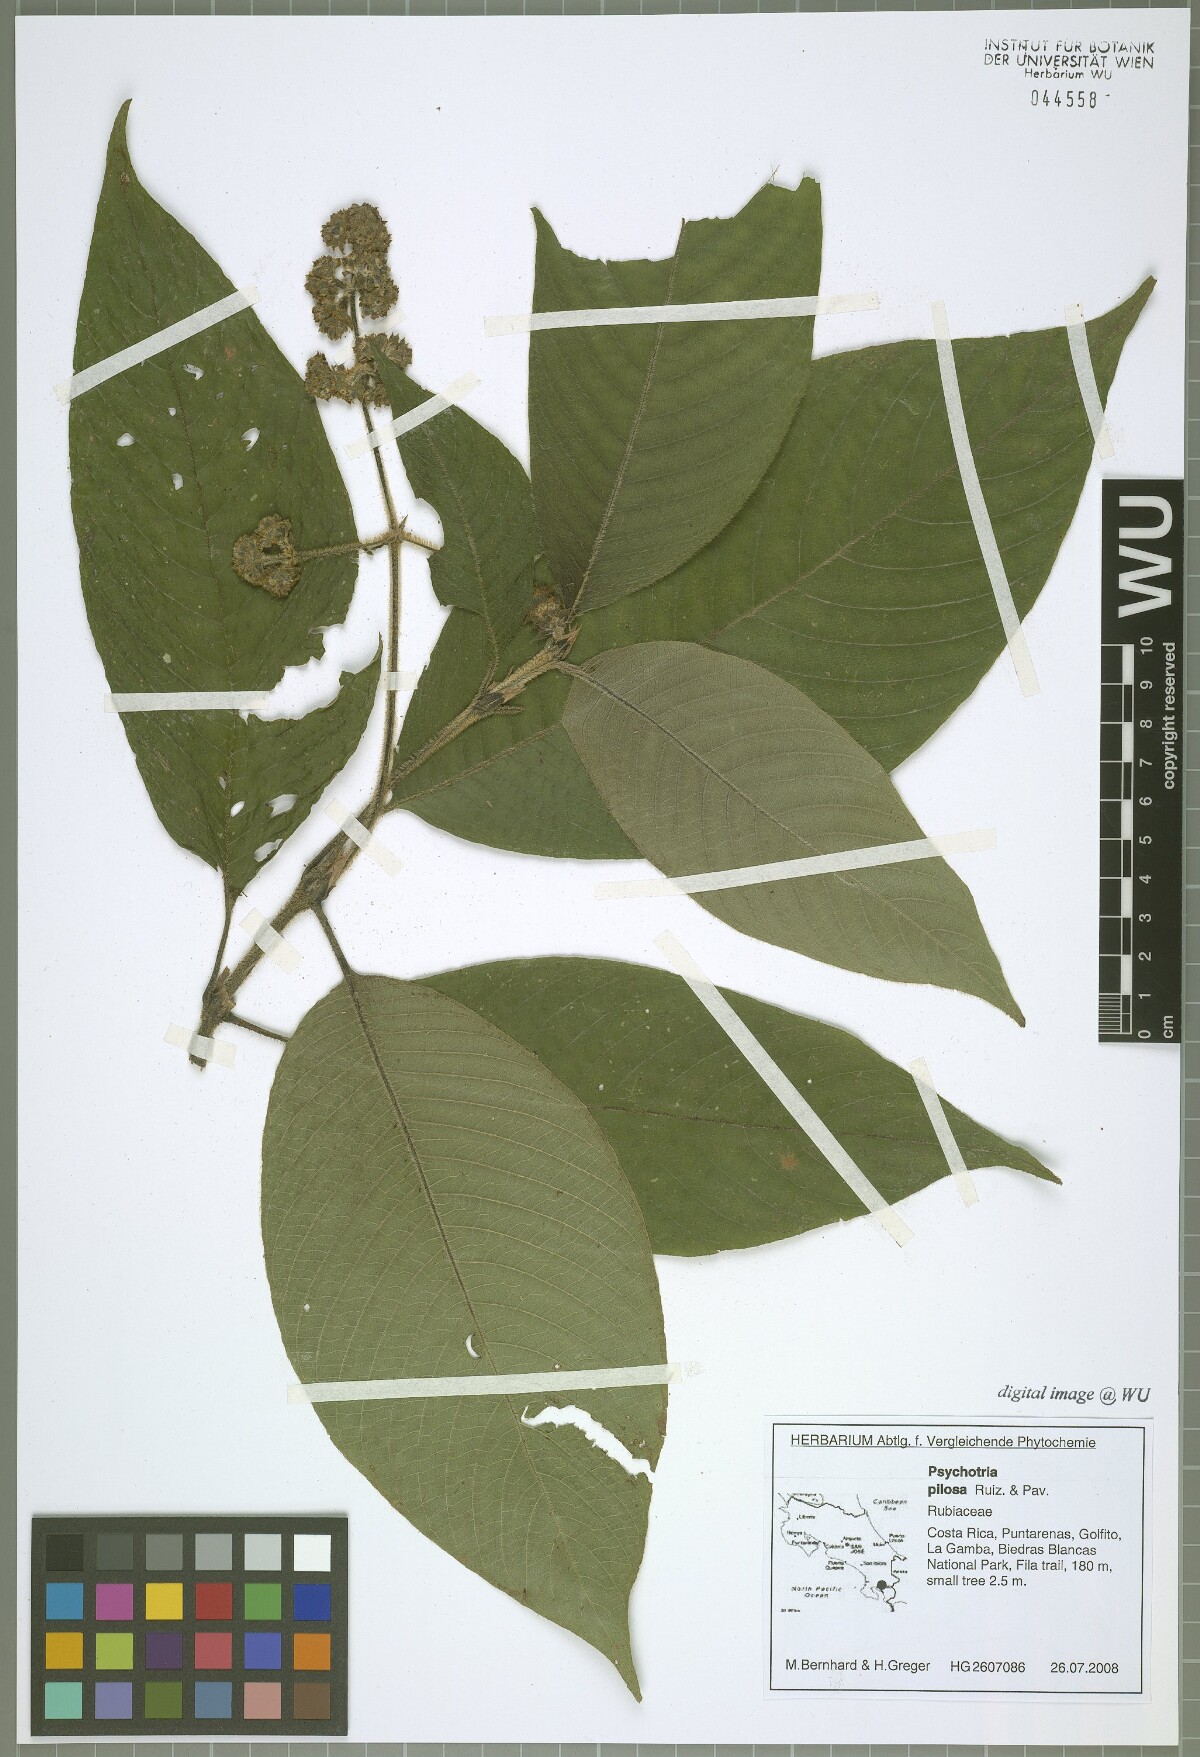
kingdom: Plantae
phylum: Tracheophyta
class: Magnoliopsida
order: Gentianales
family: Rubiaceae
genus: Palicourea
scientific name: Palicourea pilosa
